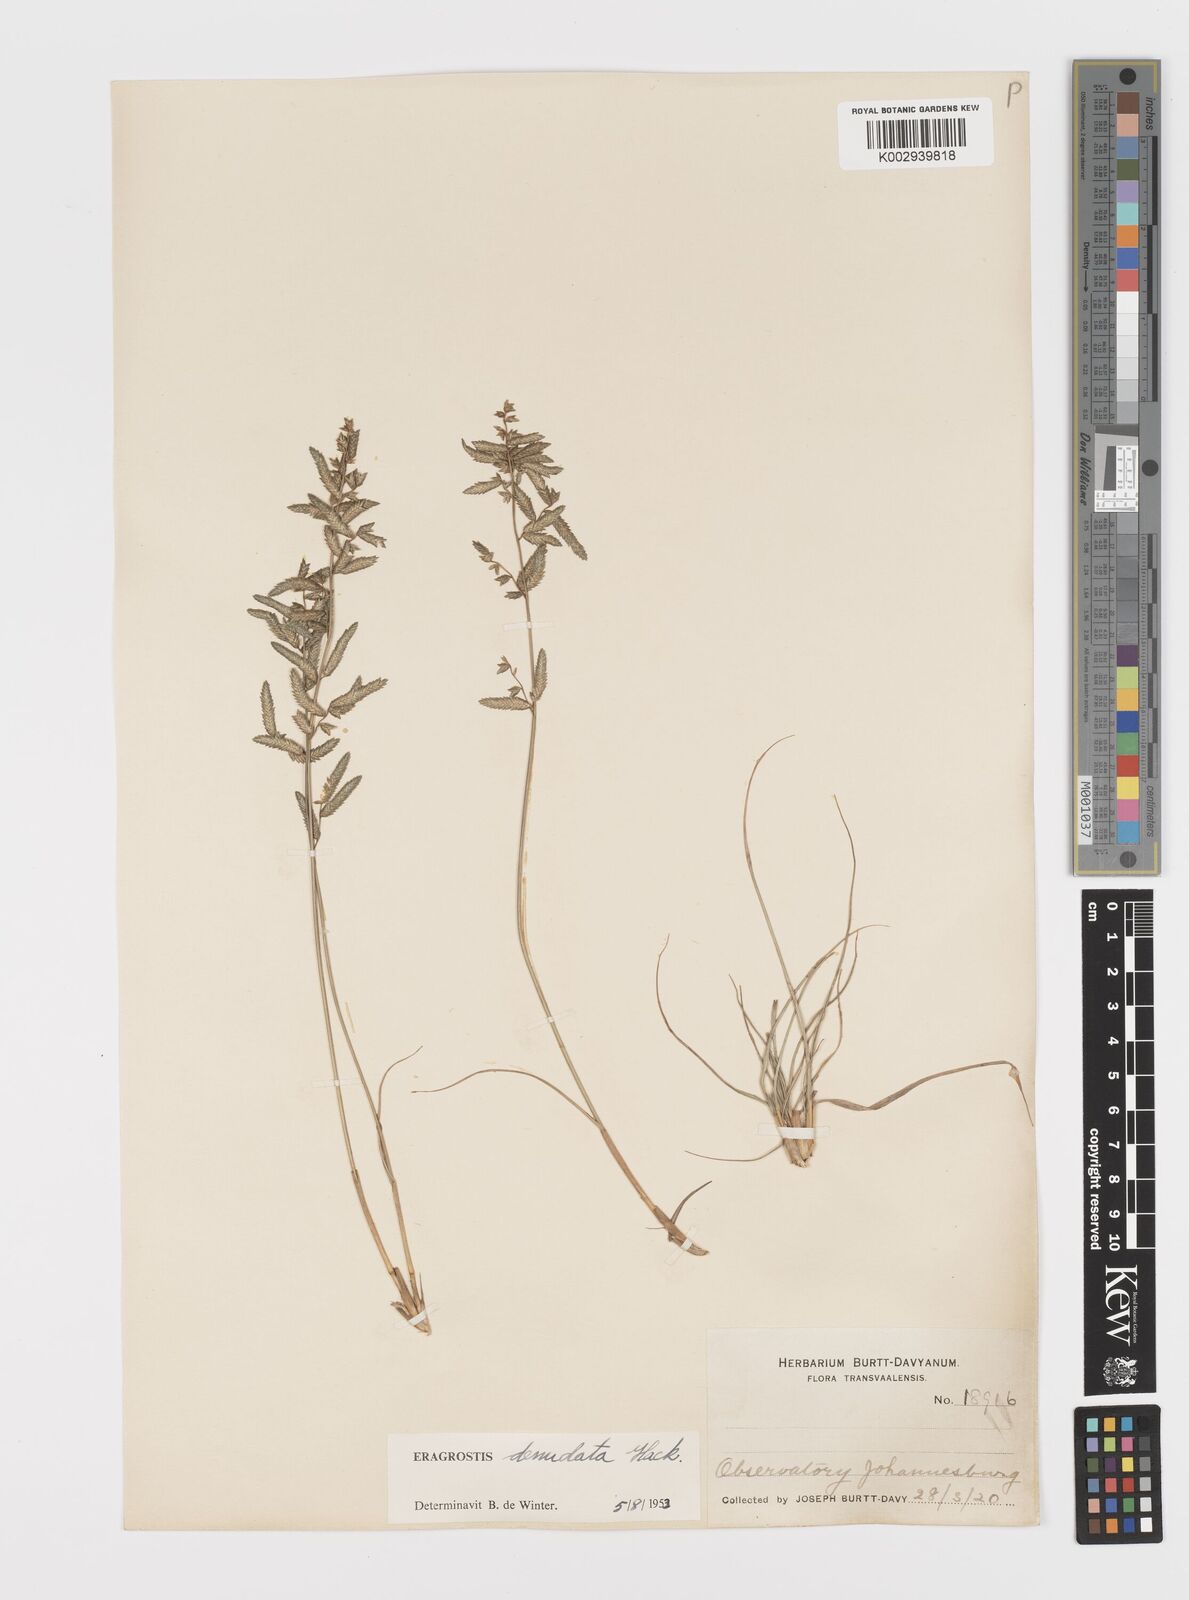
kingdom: Plantae
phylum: Tracheophyta
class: Liliopsida
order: Poales
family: Poaceae
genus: Eragrostis
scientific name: Eragrostis nindensis
